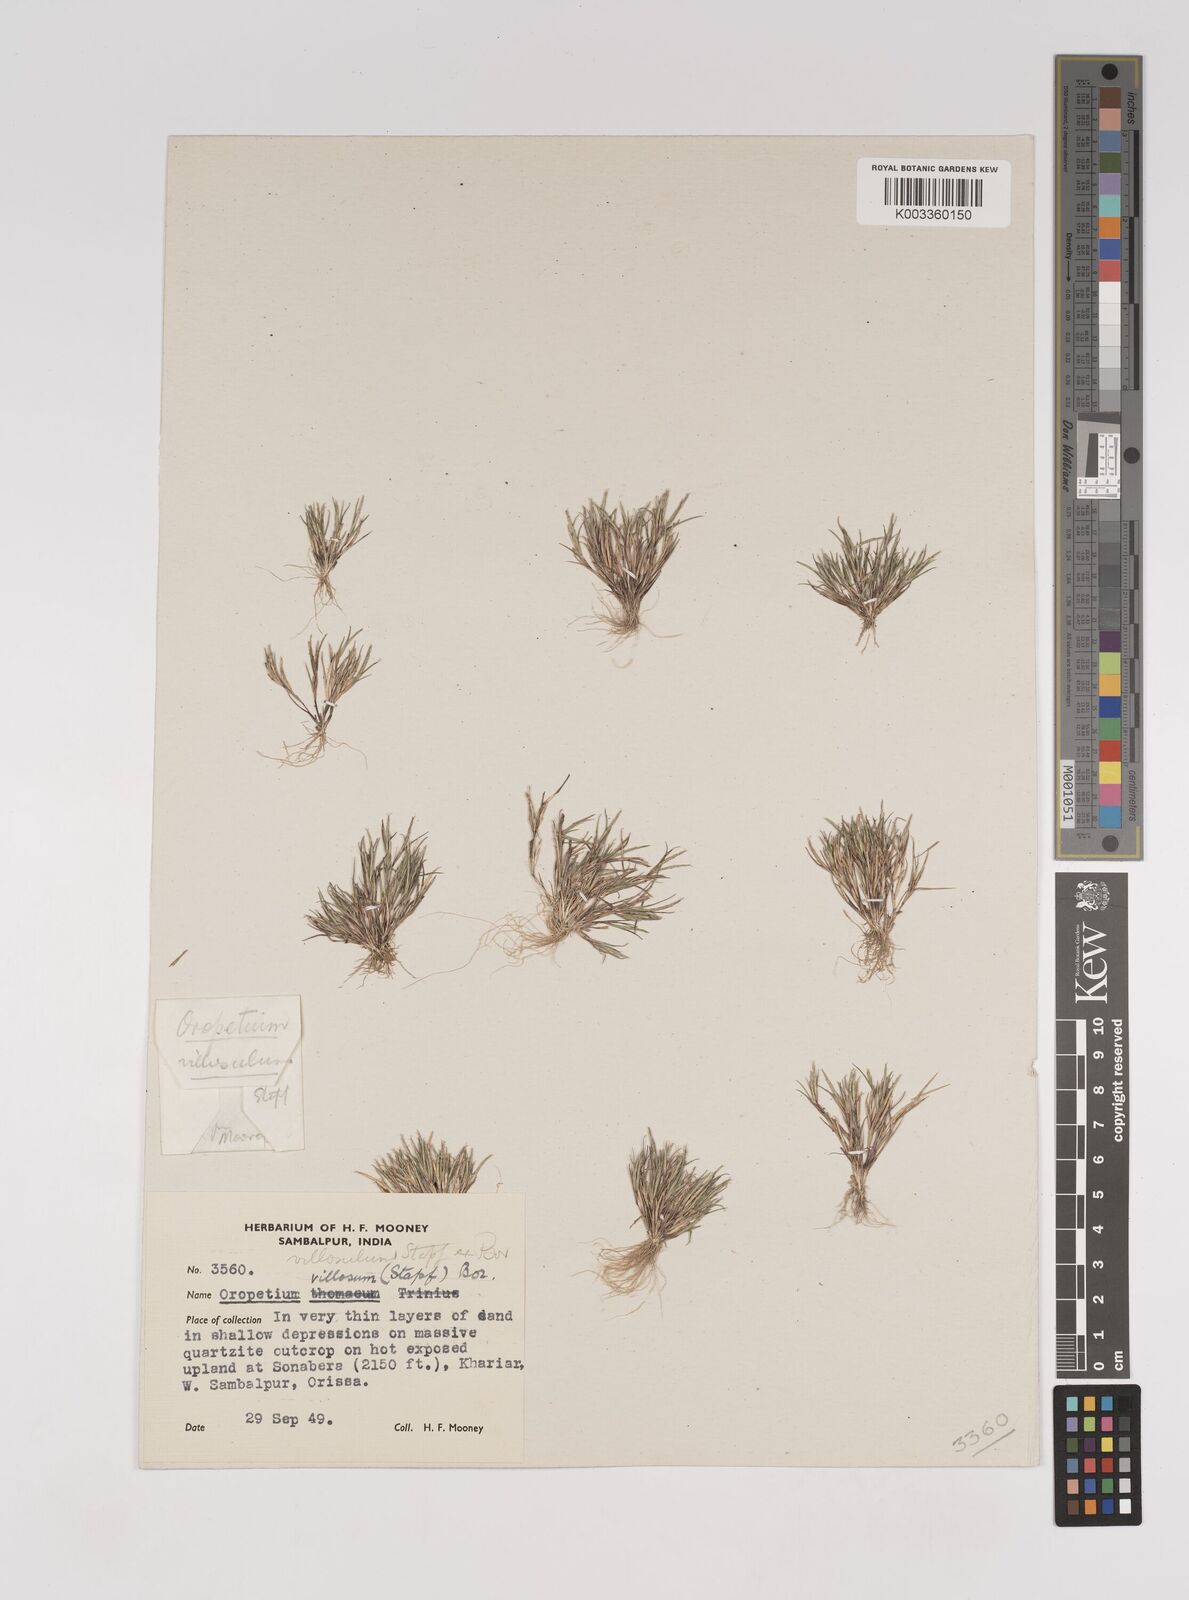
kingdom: Plantae
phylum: Tracheophyta
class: Liliopsida
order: Poales
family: Poaceae
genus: Oropetium
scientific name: Oropetium villosulum
